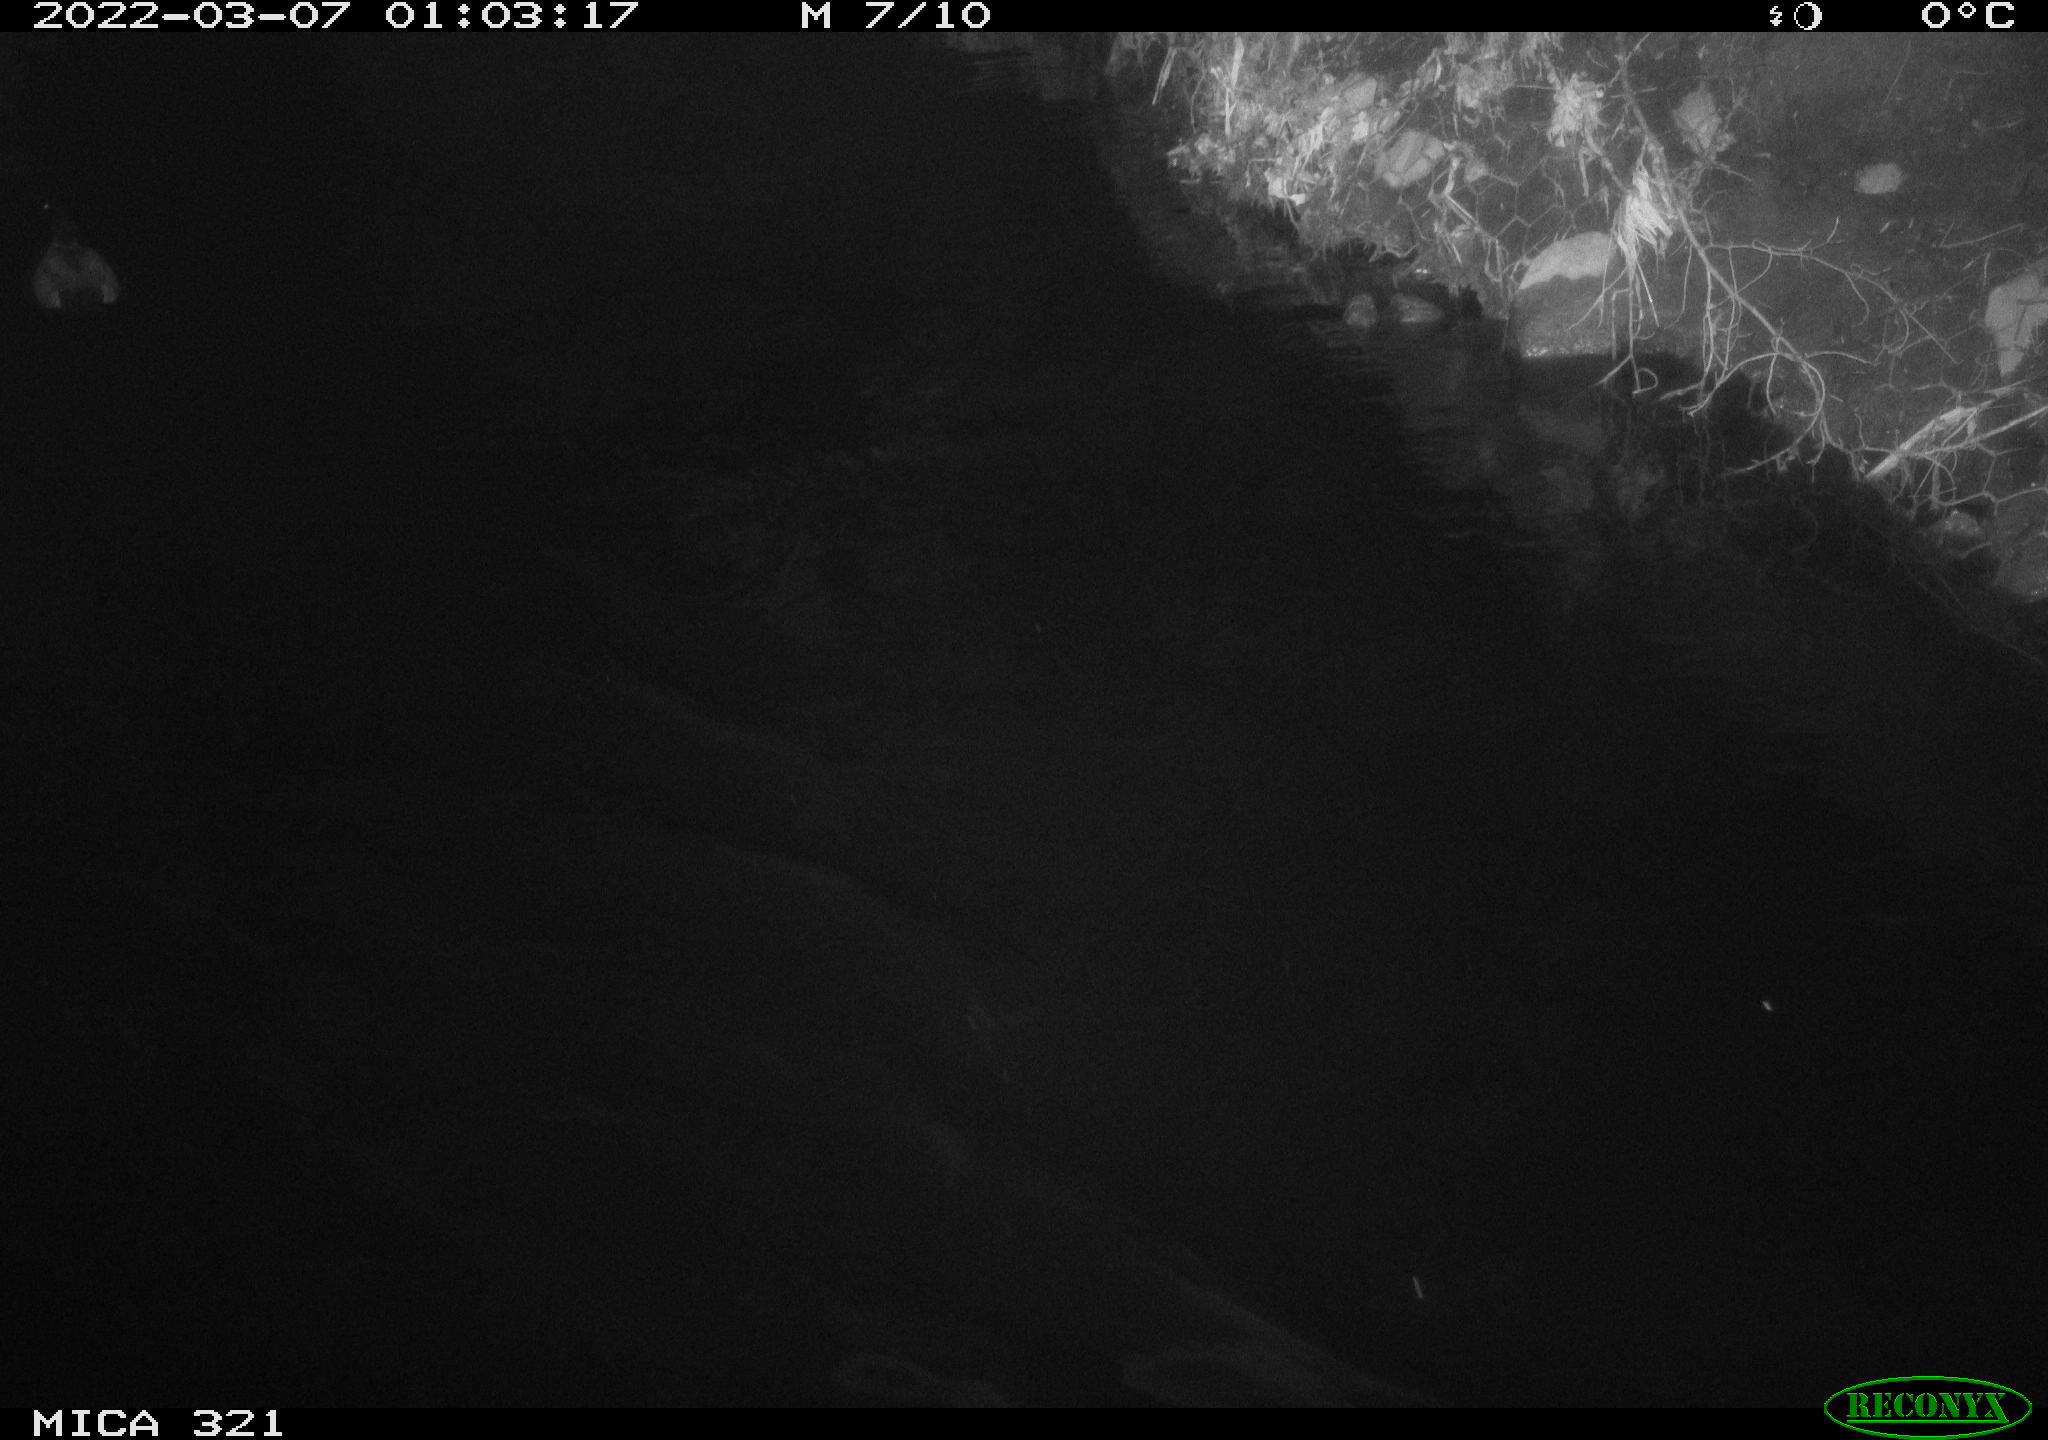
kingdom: Animalia
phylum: Chordata
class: Aves
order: Anseriformes
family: Anatidae
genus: Anas
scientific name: Anas platyrhynchos
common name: Mallard
